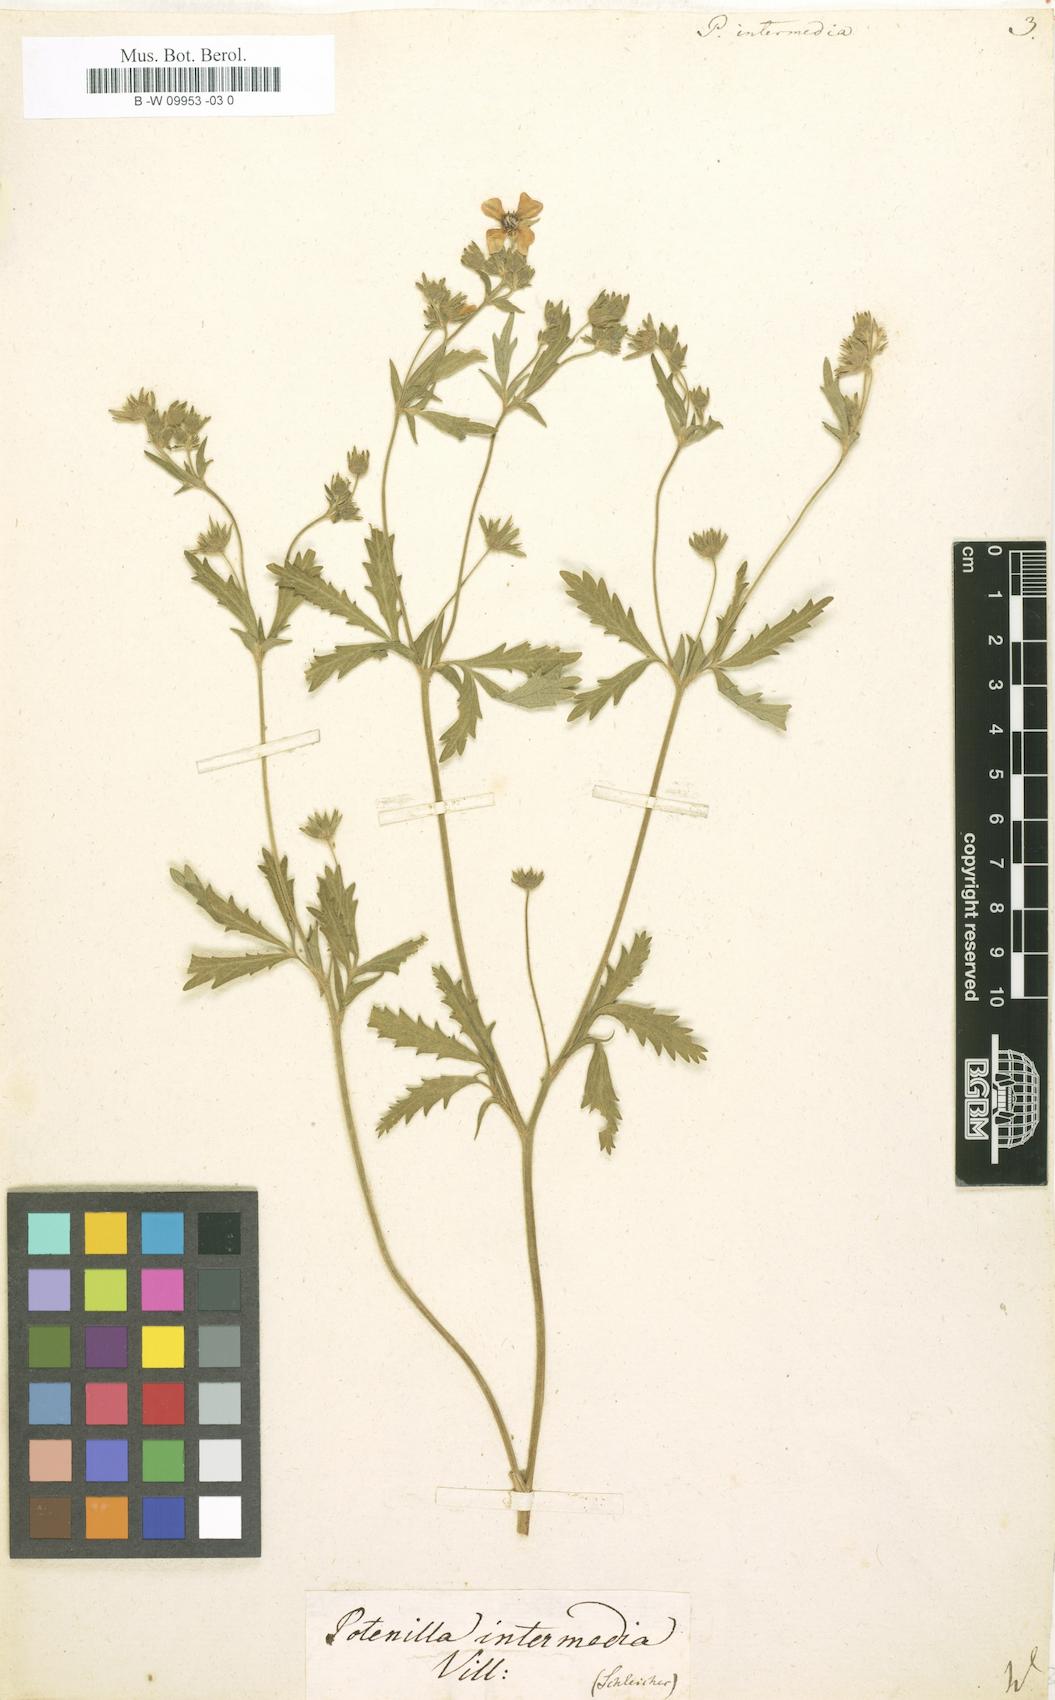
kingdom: Plantae
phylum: Tracheophyta
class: Magnoliopsida
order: Rosales
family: Rosaceae
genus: Potentilla
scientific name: Potentilla intermedia
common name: Downy cinquefoil
